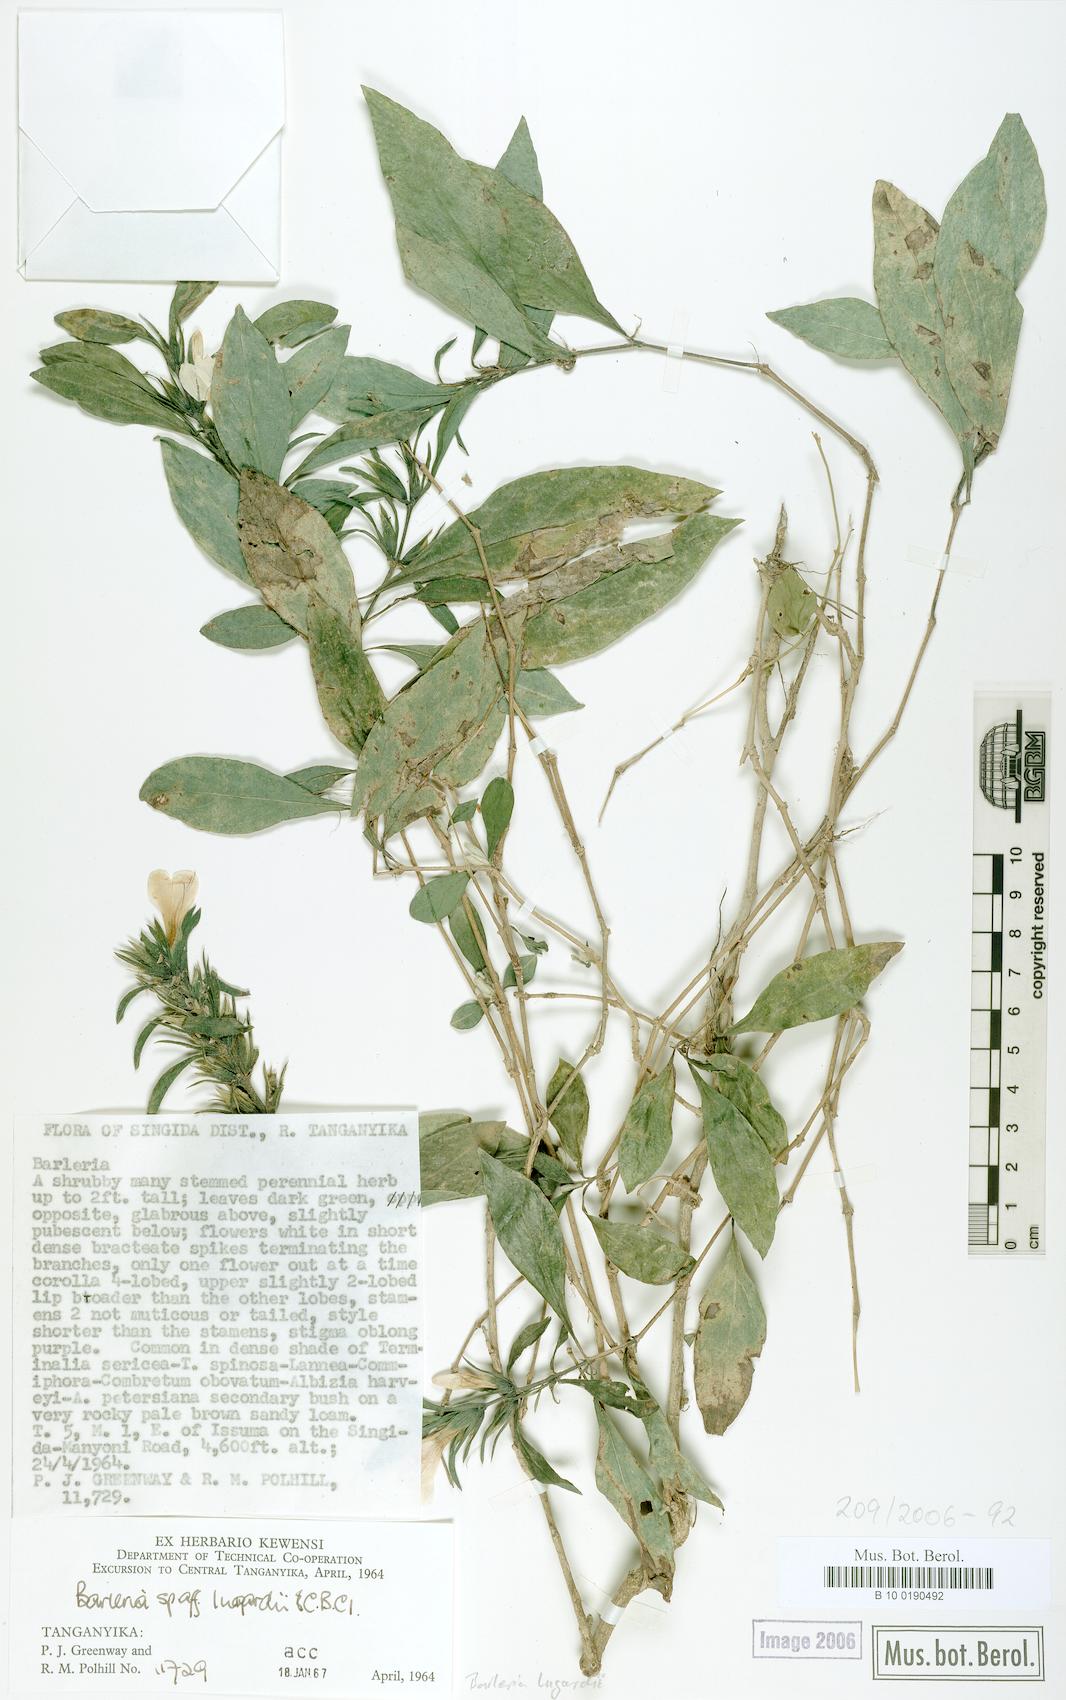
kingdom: Plantae
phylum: Tracheophyta
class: Magnoliopsida
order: Lamiales
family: Acanthaceae
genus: Barleria
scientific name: Barleria lugardii
